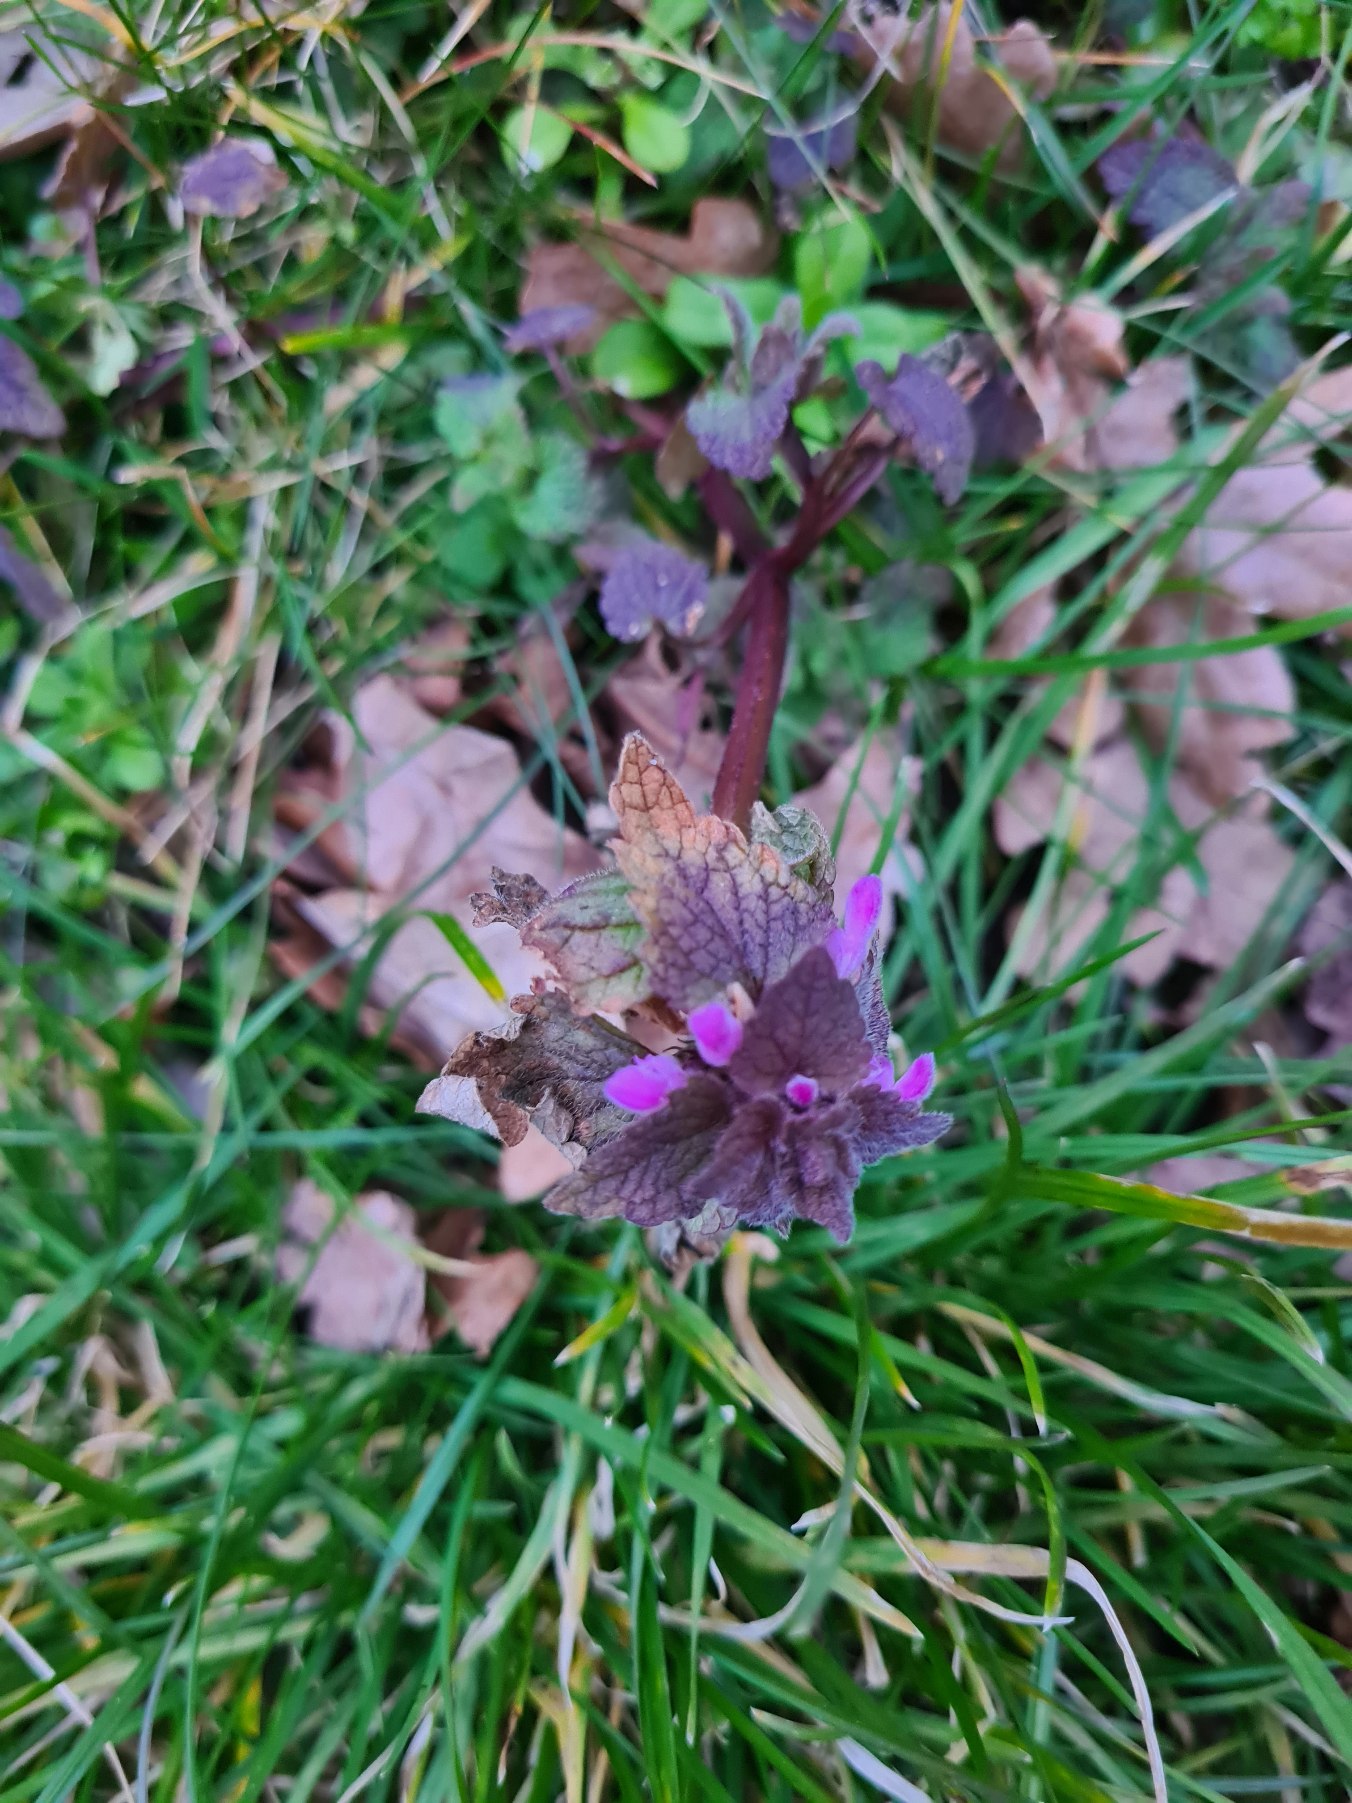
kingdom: Plantae
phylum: Tracheophyta
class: Magnoliopsida
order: Lamiales
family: Lamiaceae
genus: Lamium
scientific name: Lamium purpureum
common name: Rød tvetand
